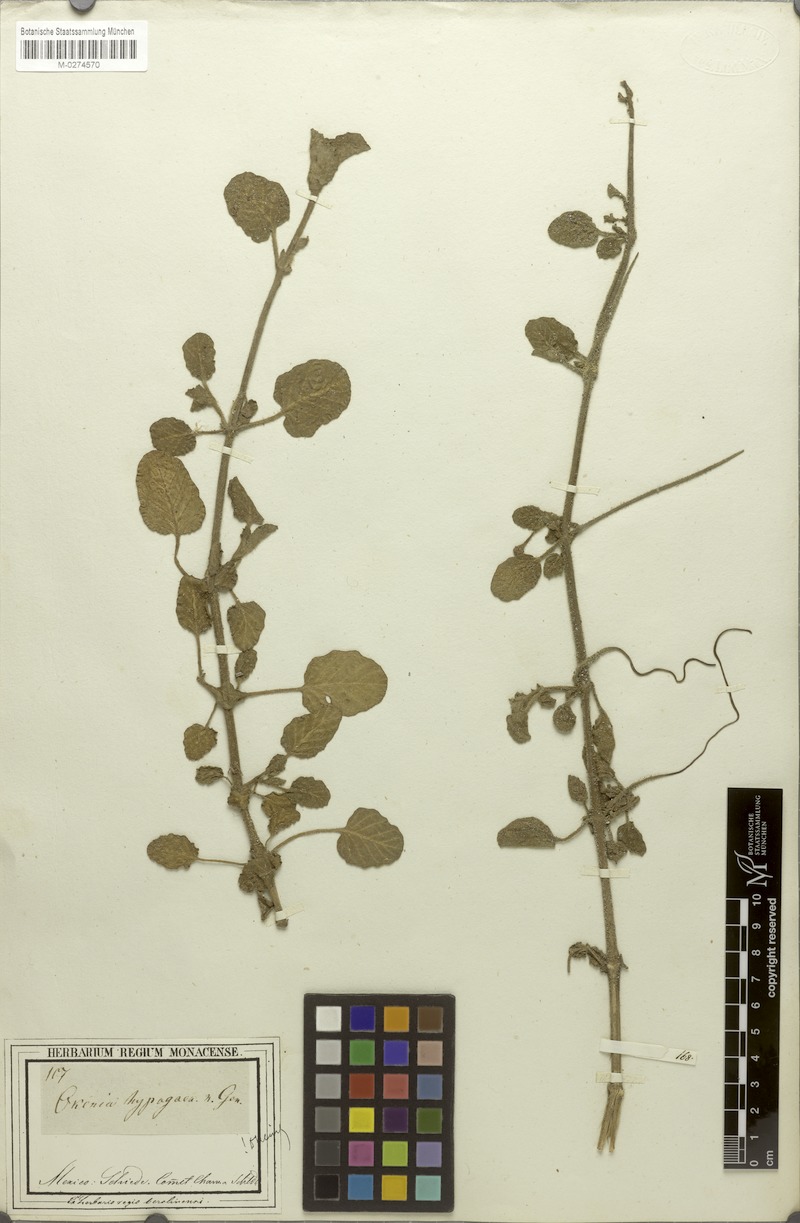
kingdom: Plantae
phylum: Tracheophyta
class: Magnoliopsida
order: Caryophyllales
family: Nyctaginaceae
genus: Okenia
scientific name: Okenia hypogaea
